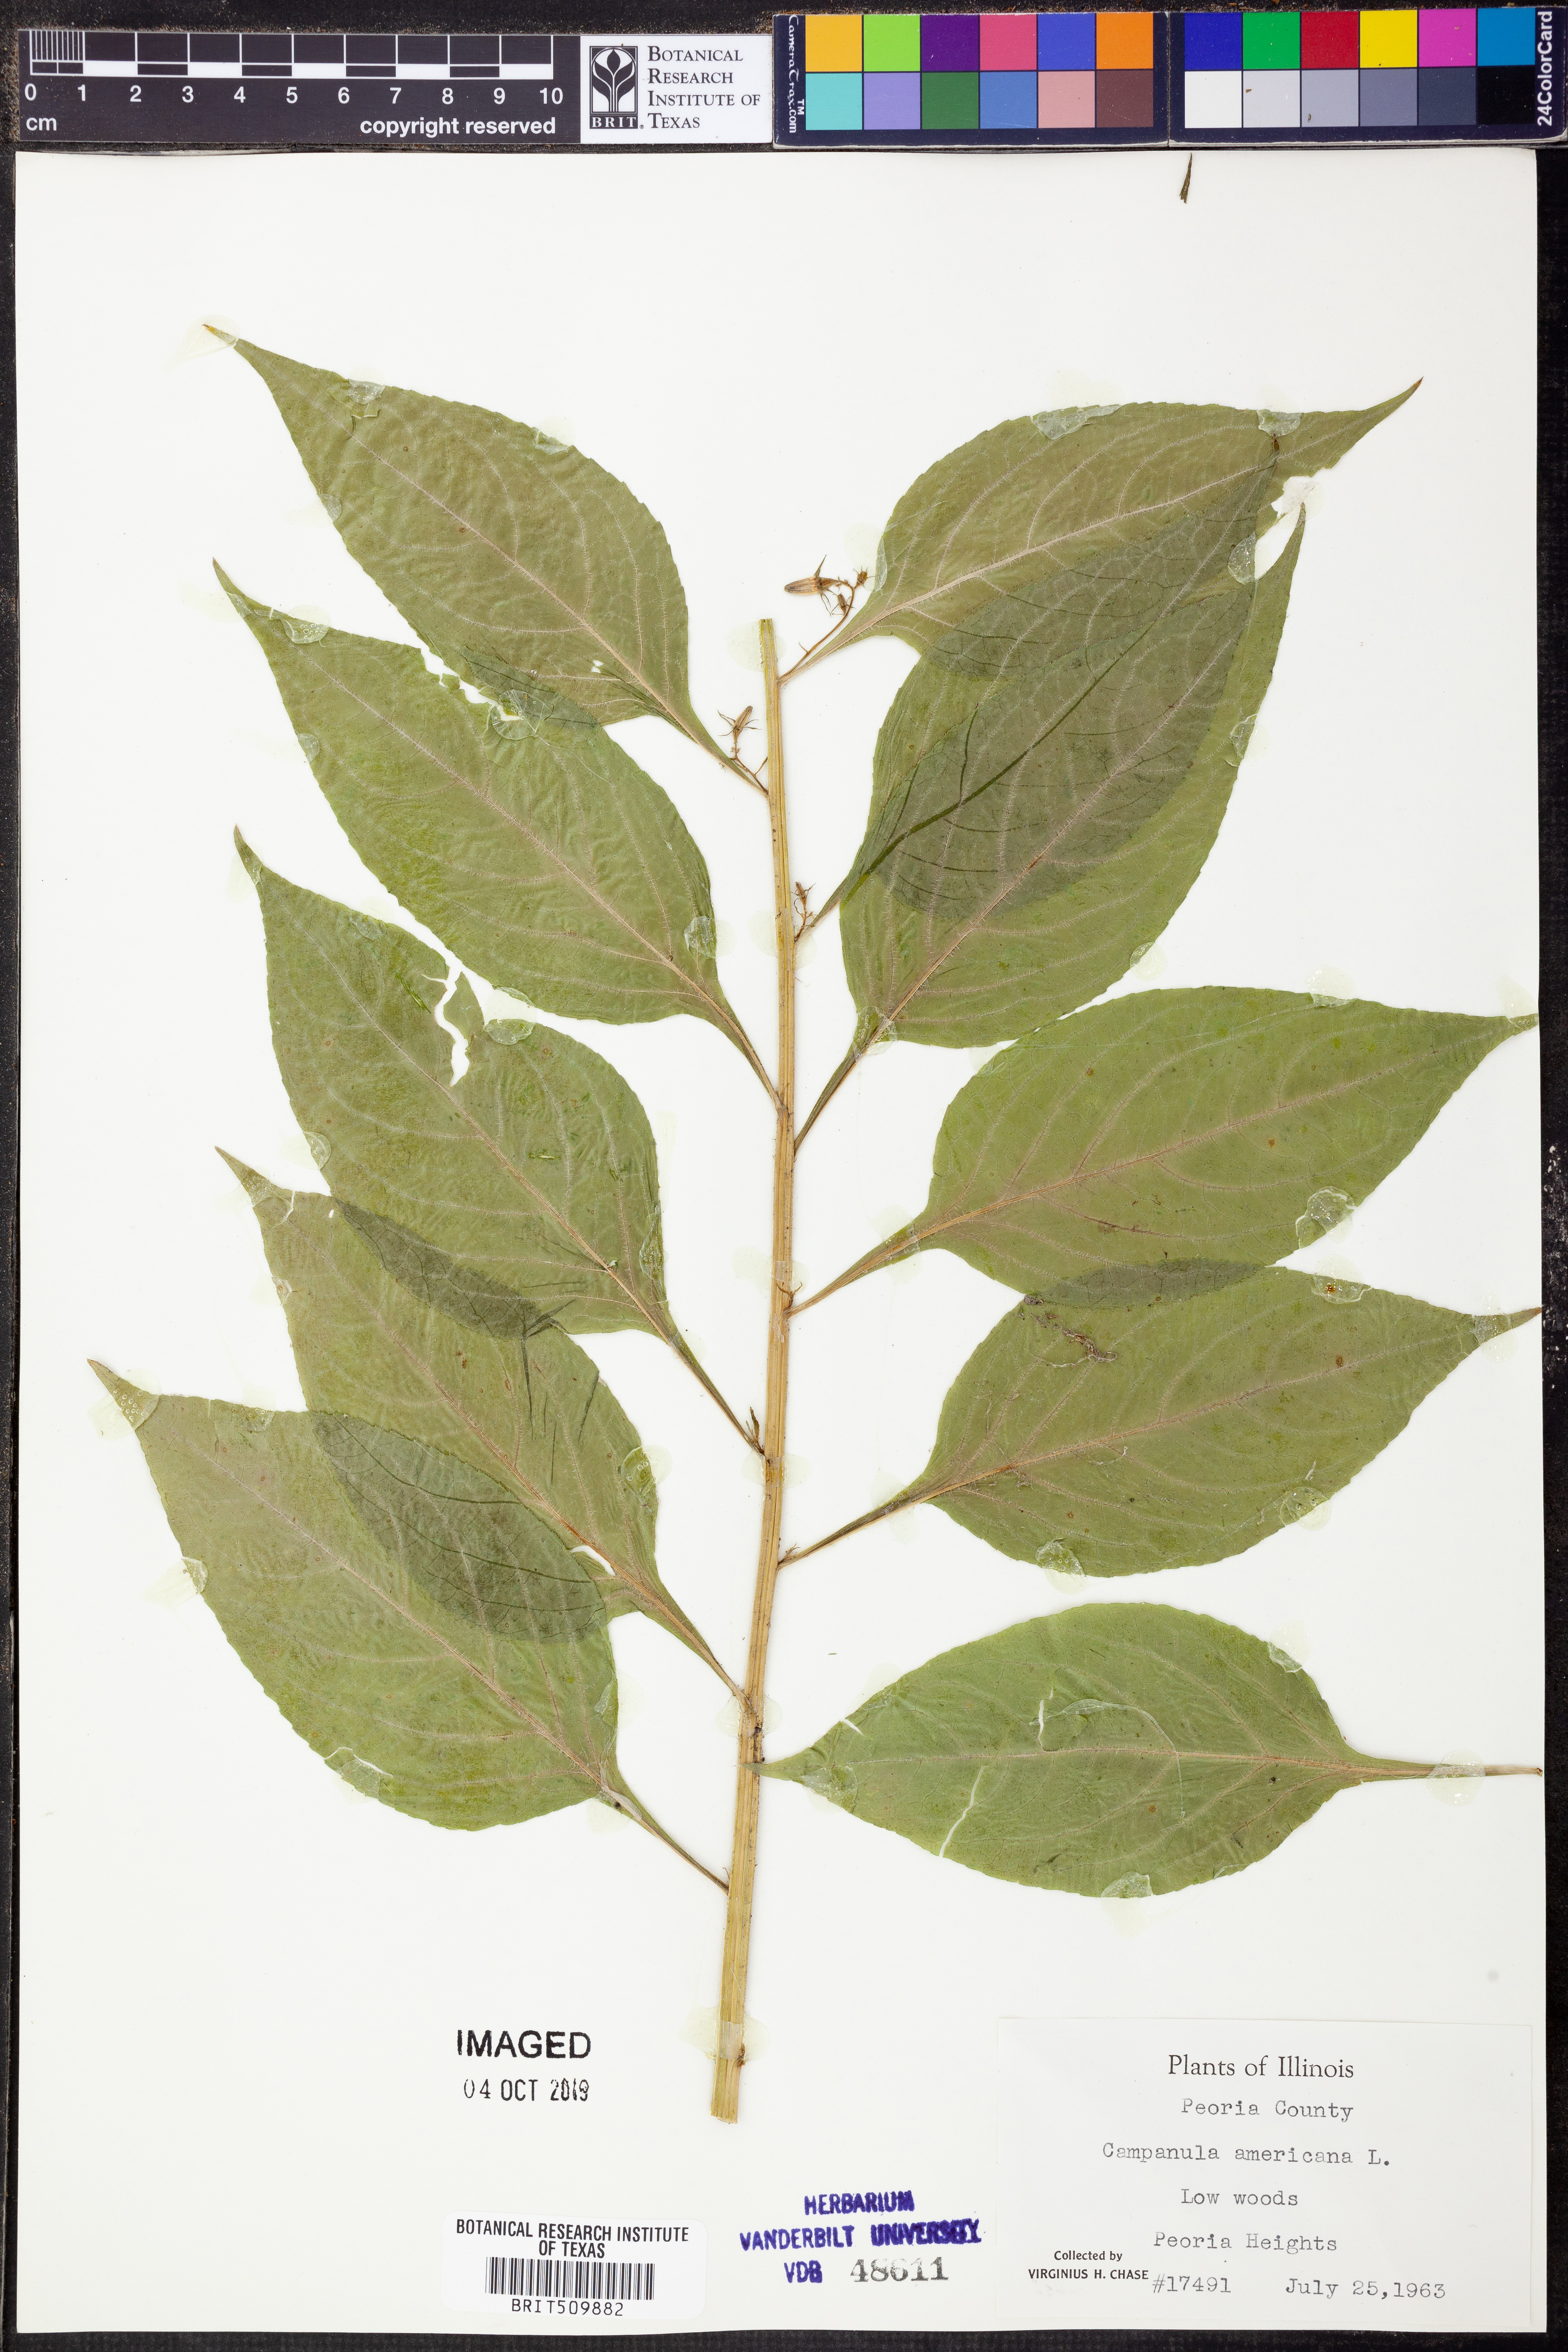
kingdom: Plantae
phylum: Tracheophyta
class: Magnoliopsida
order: Asterales
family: Campanulaceae
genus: Campanula
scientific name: Campanula americana
